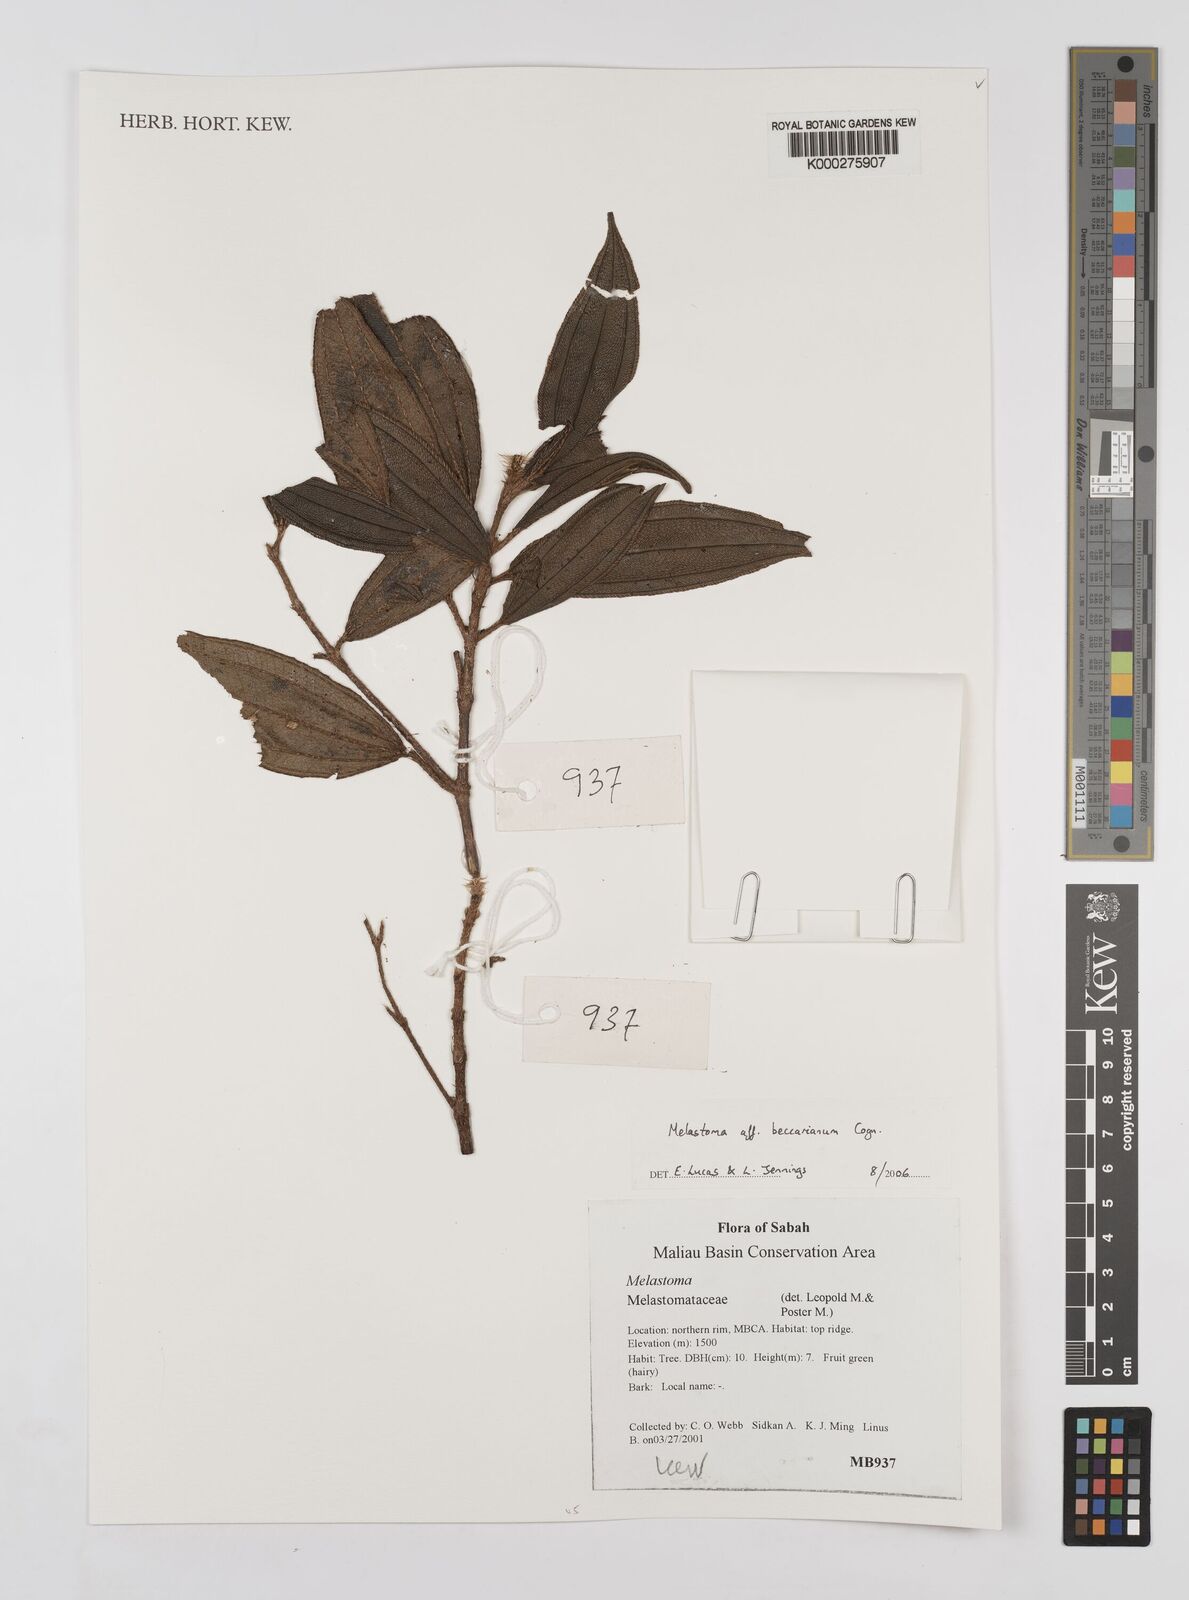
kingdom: Plantae
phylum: Tracheophyta
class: Magnoliopsida
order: Myrtales
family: Melastomataceae
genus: Melastoma
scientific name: Melastoma beccarianum
